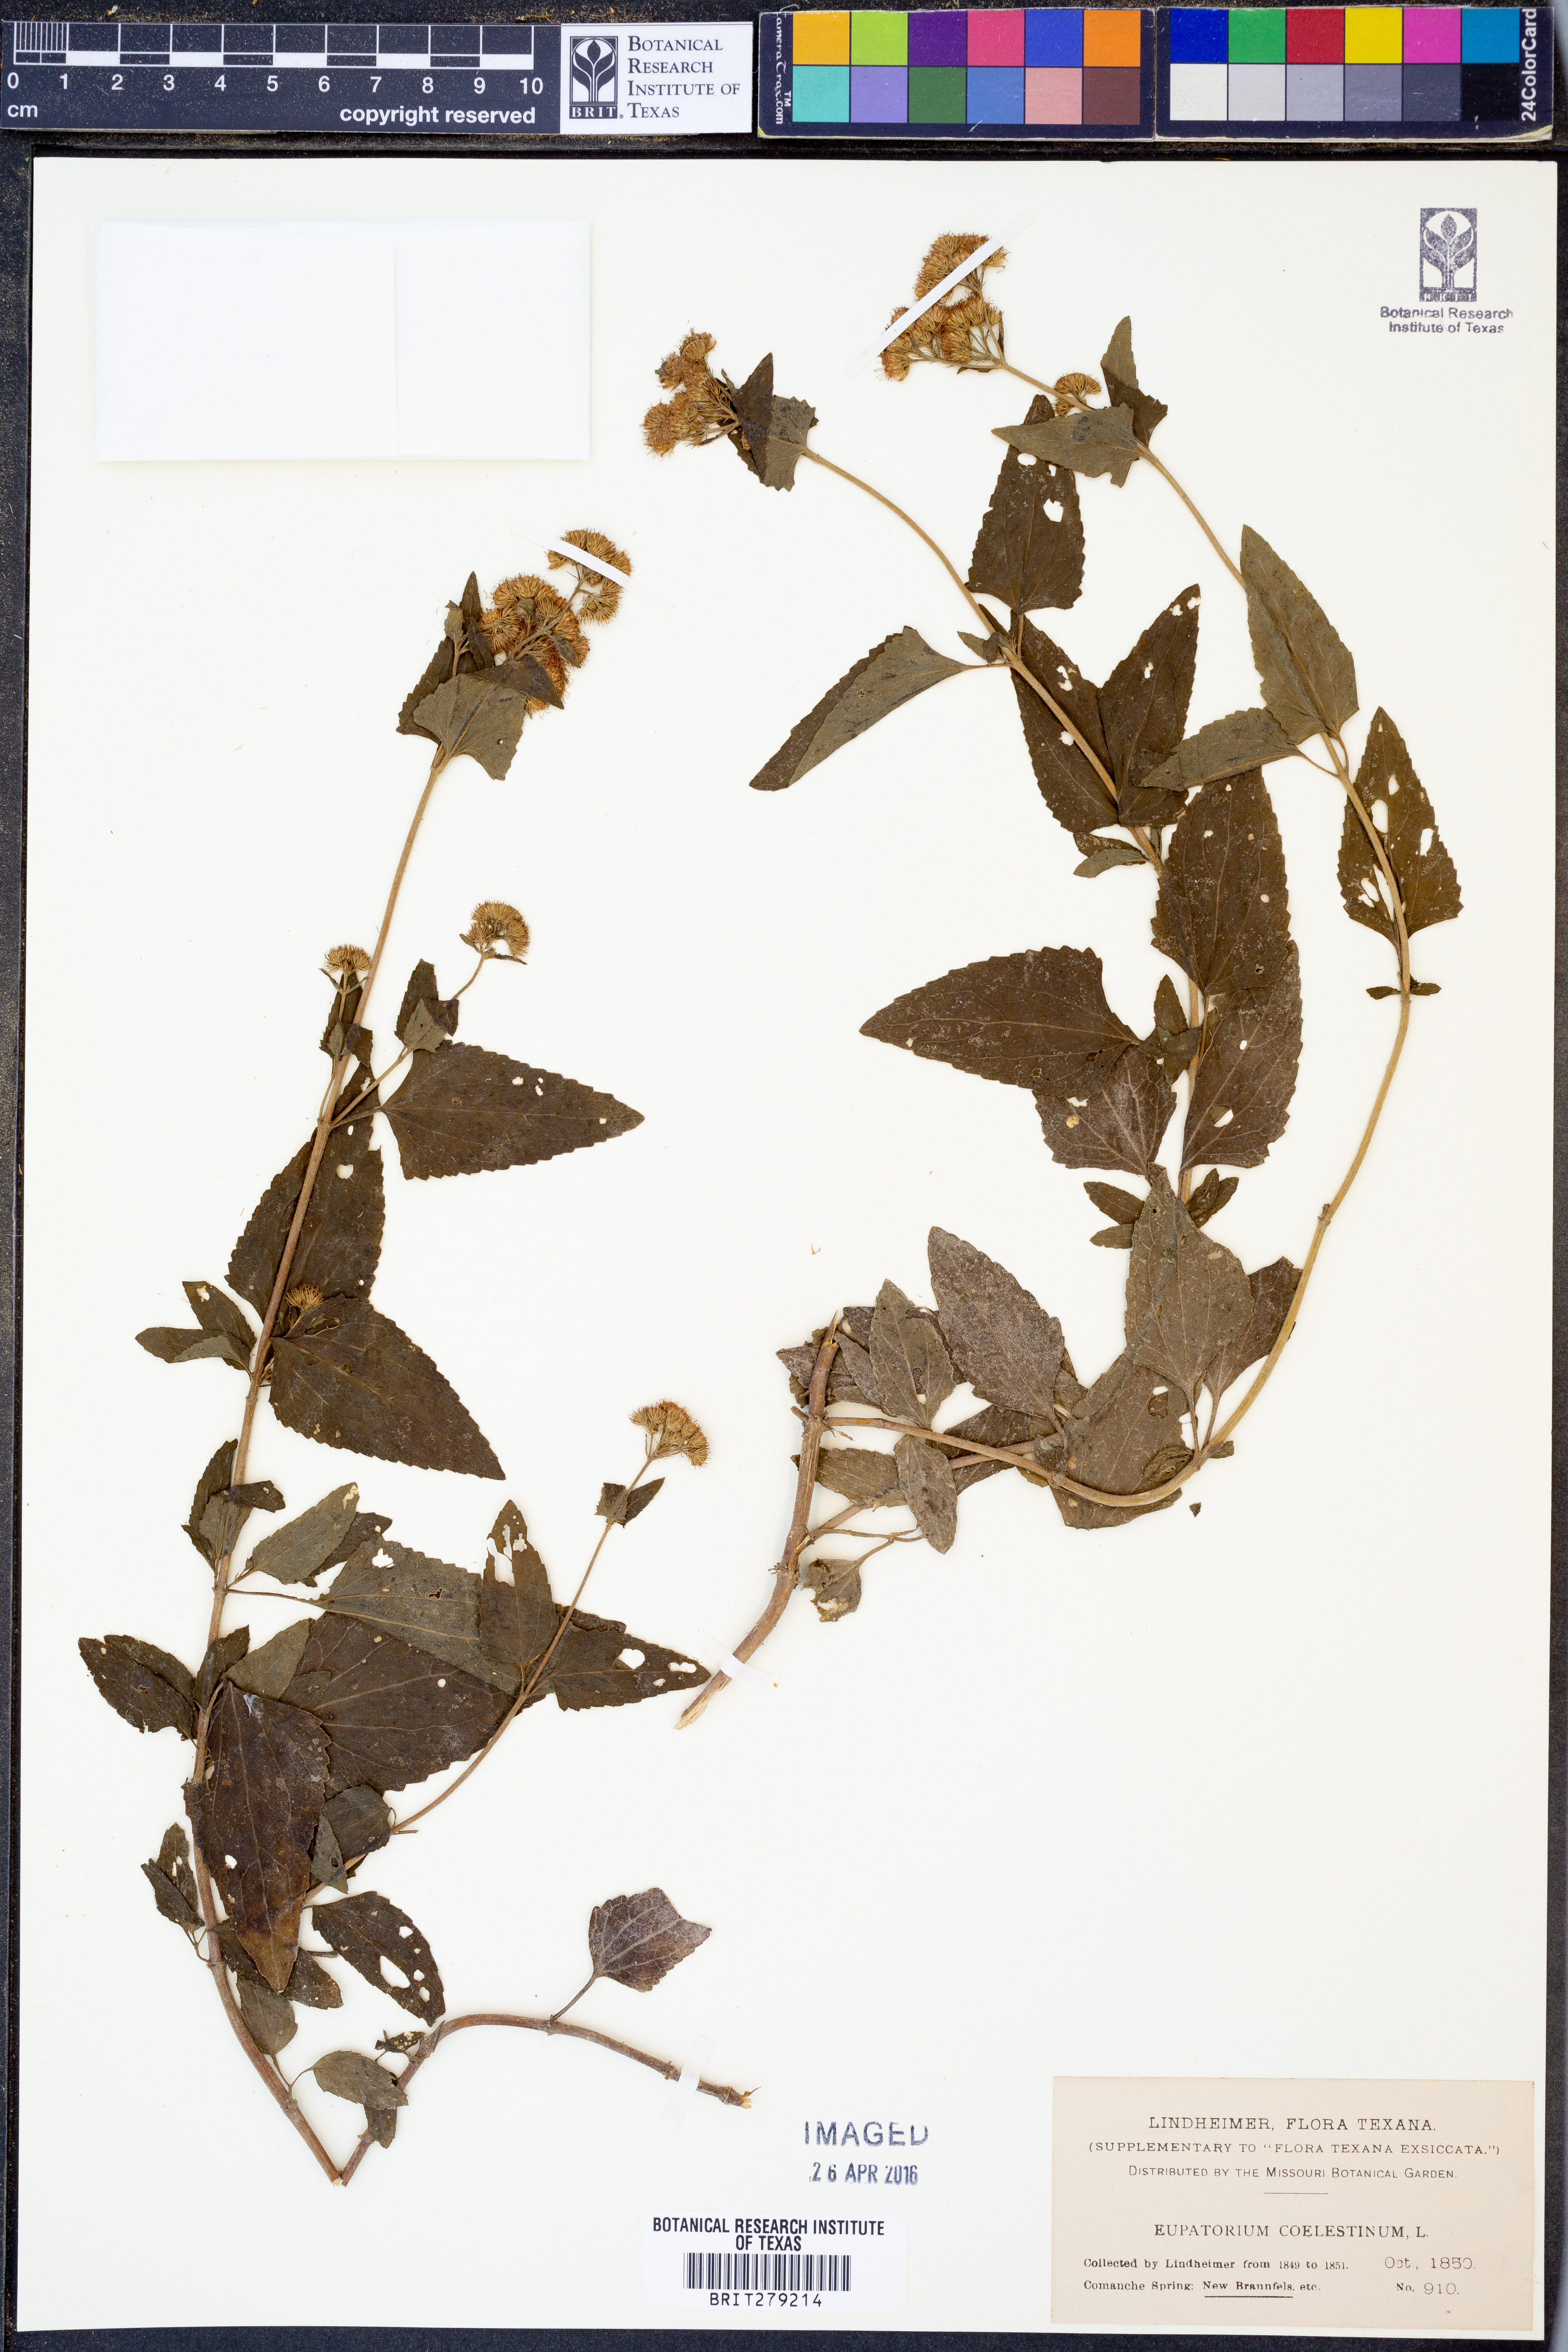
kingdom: Plantae
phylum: Tracheophyta
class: Magnoliopsida
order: Asterales
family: Asteraceae
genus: Conoclinium
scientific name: Conoclinium coelestinum
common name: Blue mistflower
